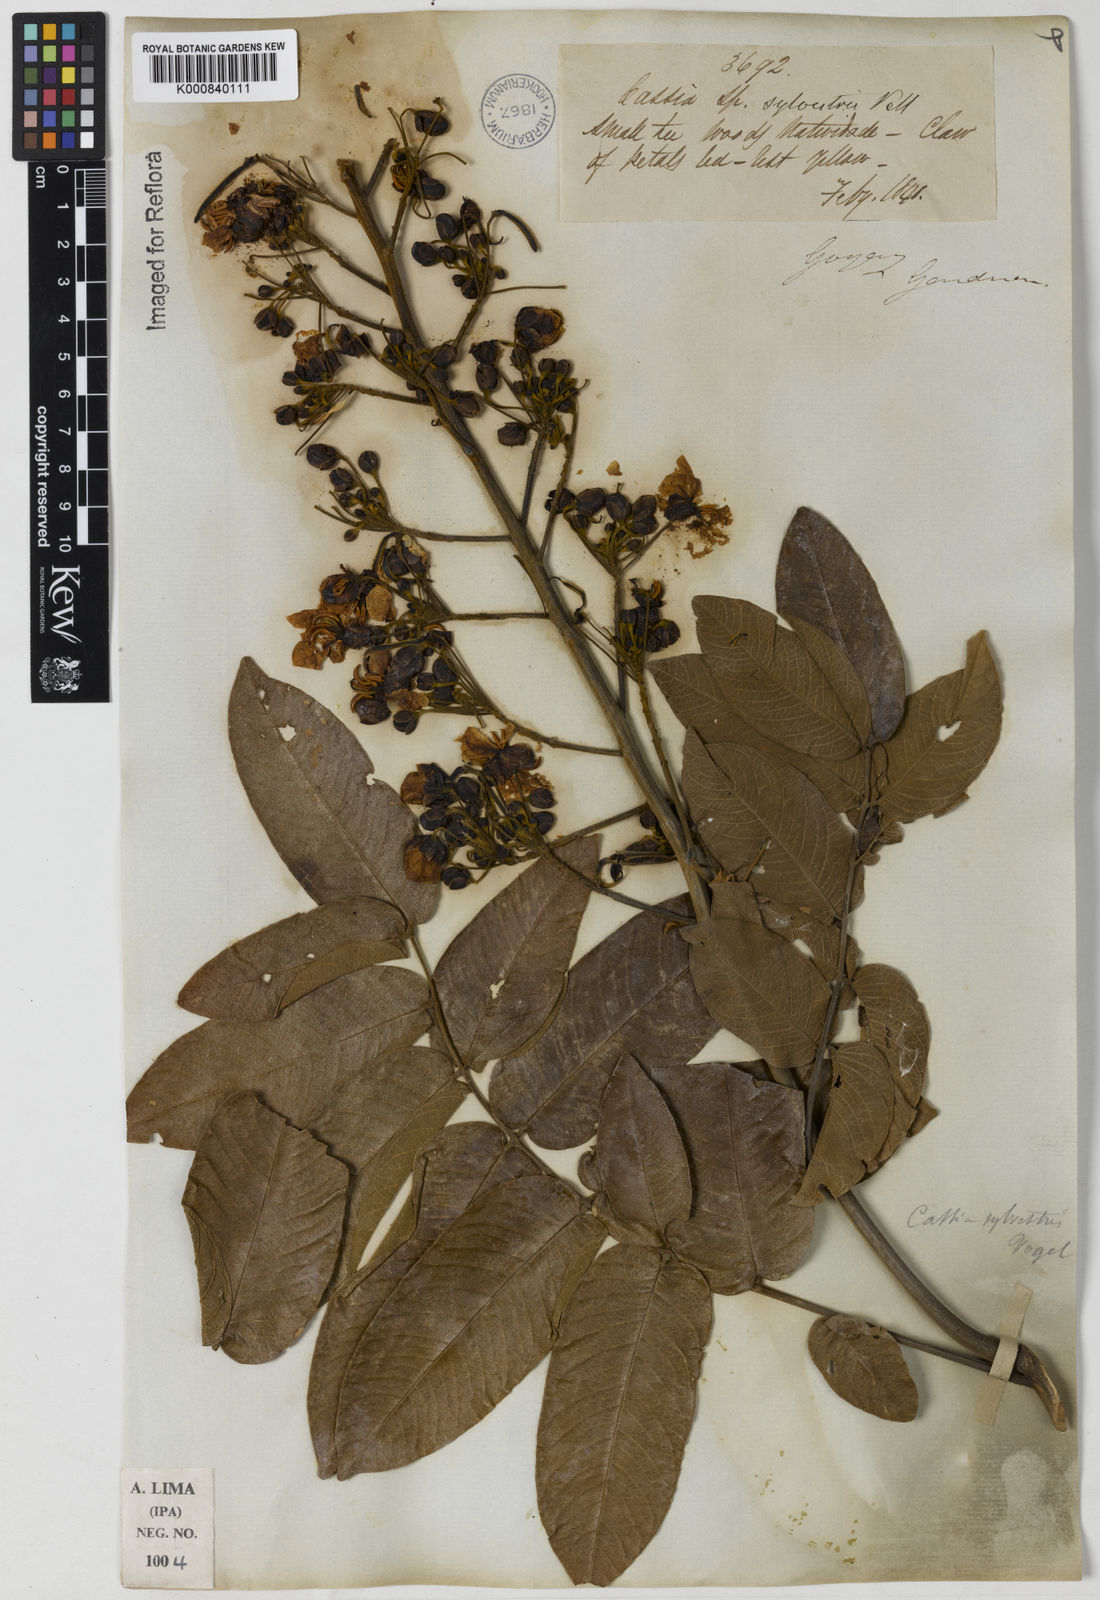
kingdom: Plantae
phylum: Tracheophyta
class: Magnoliopsida
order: Fabales
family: Fabaceae
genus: Senna
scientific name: Senna silvestris
